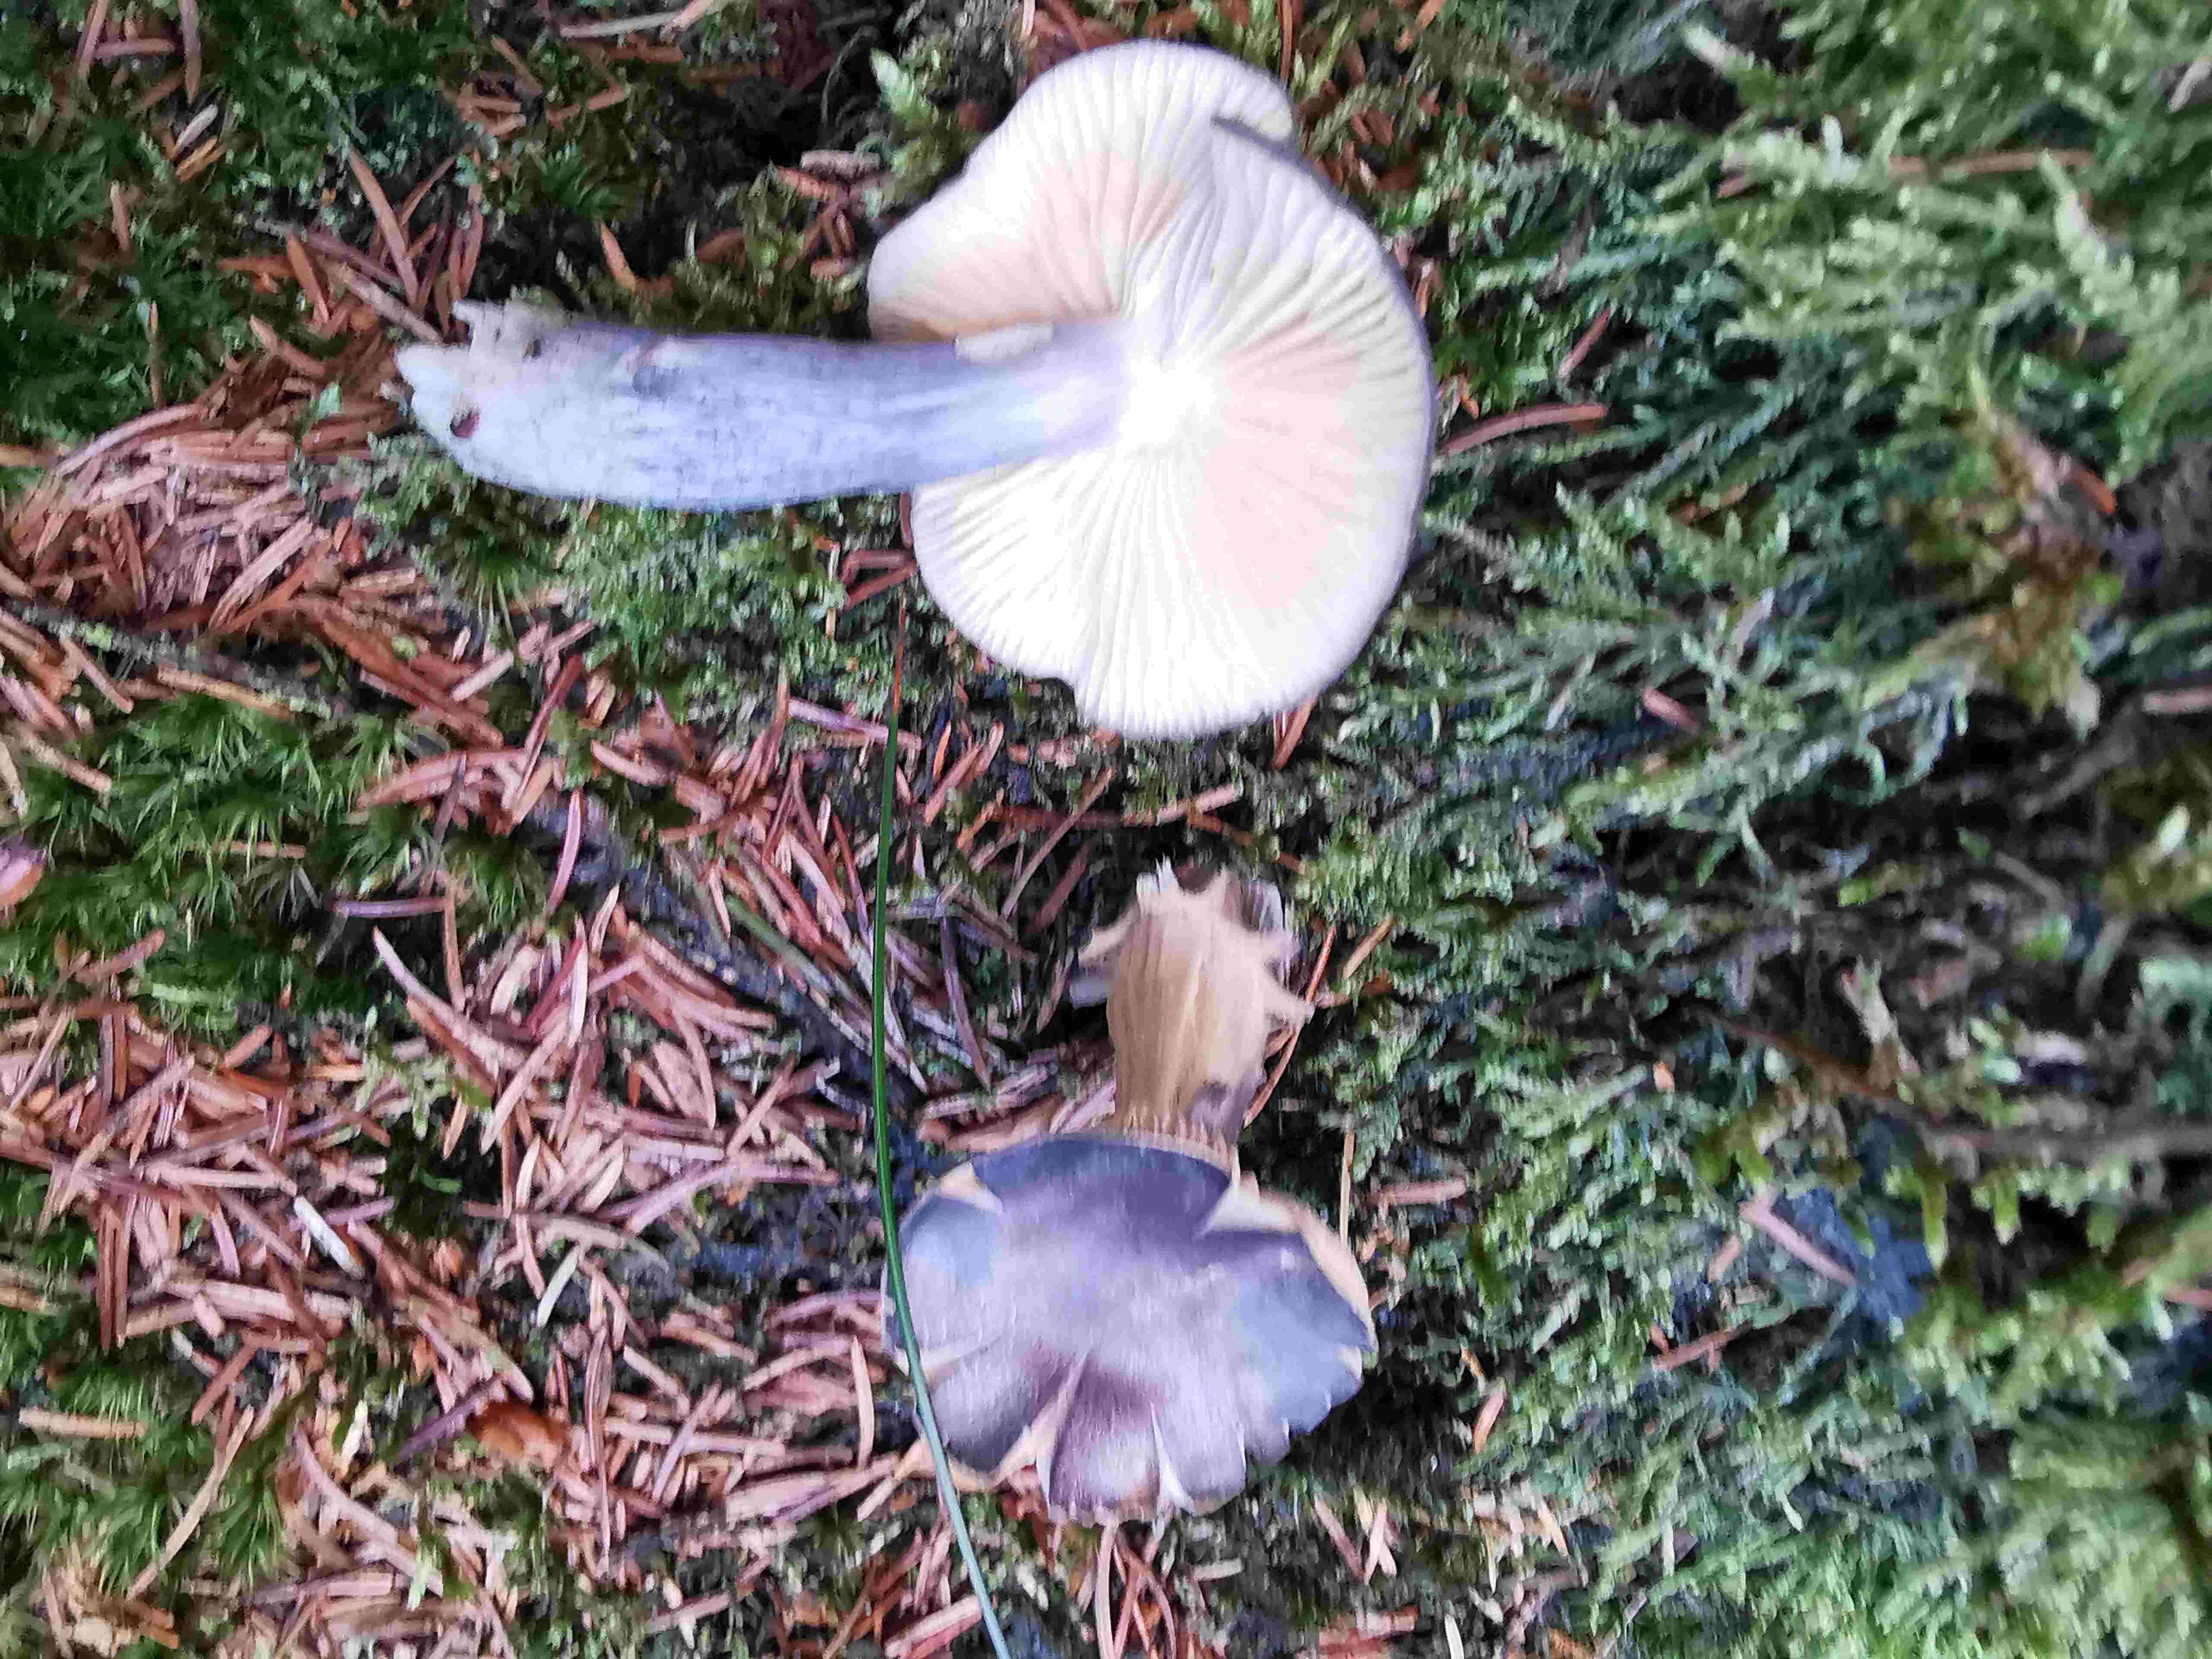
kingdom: Fungi
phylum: Basidiomycota
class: Agaricomycetes
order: Agaricales
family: Entolomataceae
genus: Entocybe
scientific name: Entocybe nitida
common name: stålblå rødblad
